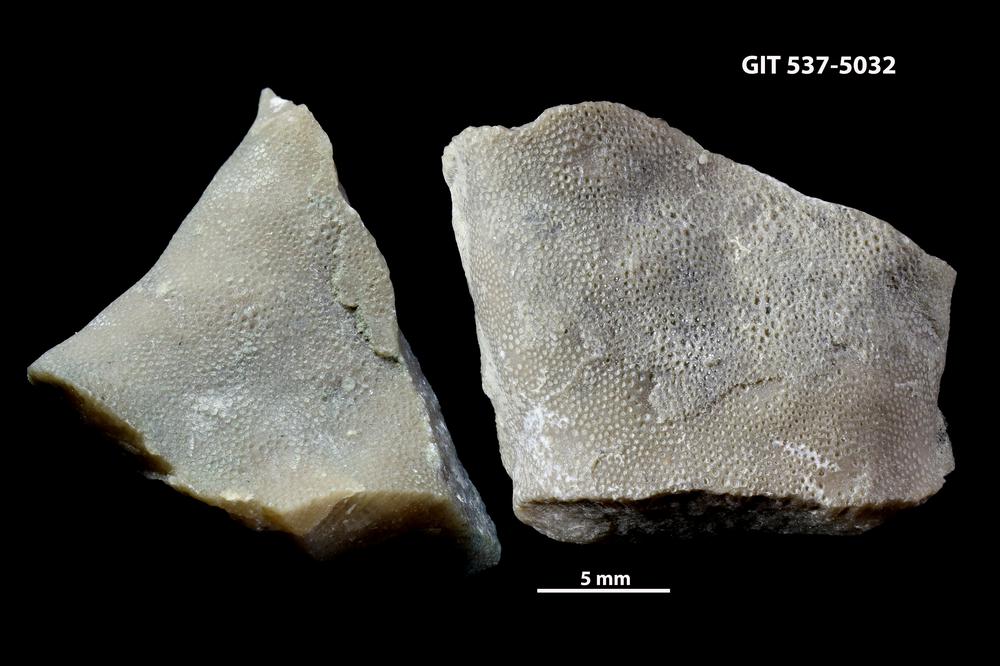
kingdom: Animalia
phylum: Bryozoa
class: Stenolaemata
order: Trepostomatida
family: Monticuliporidae
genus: Peronopora
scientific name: Peronopora
